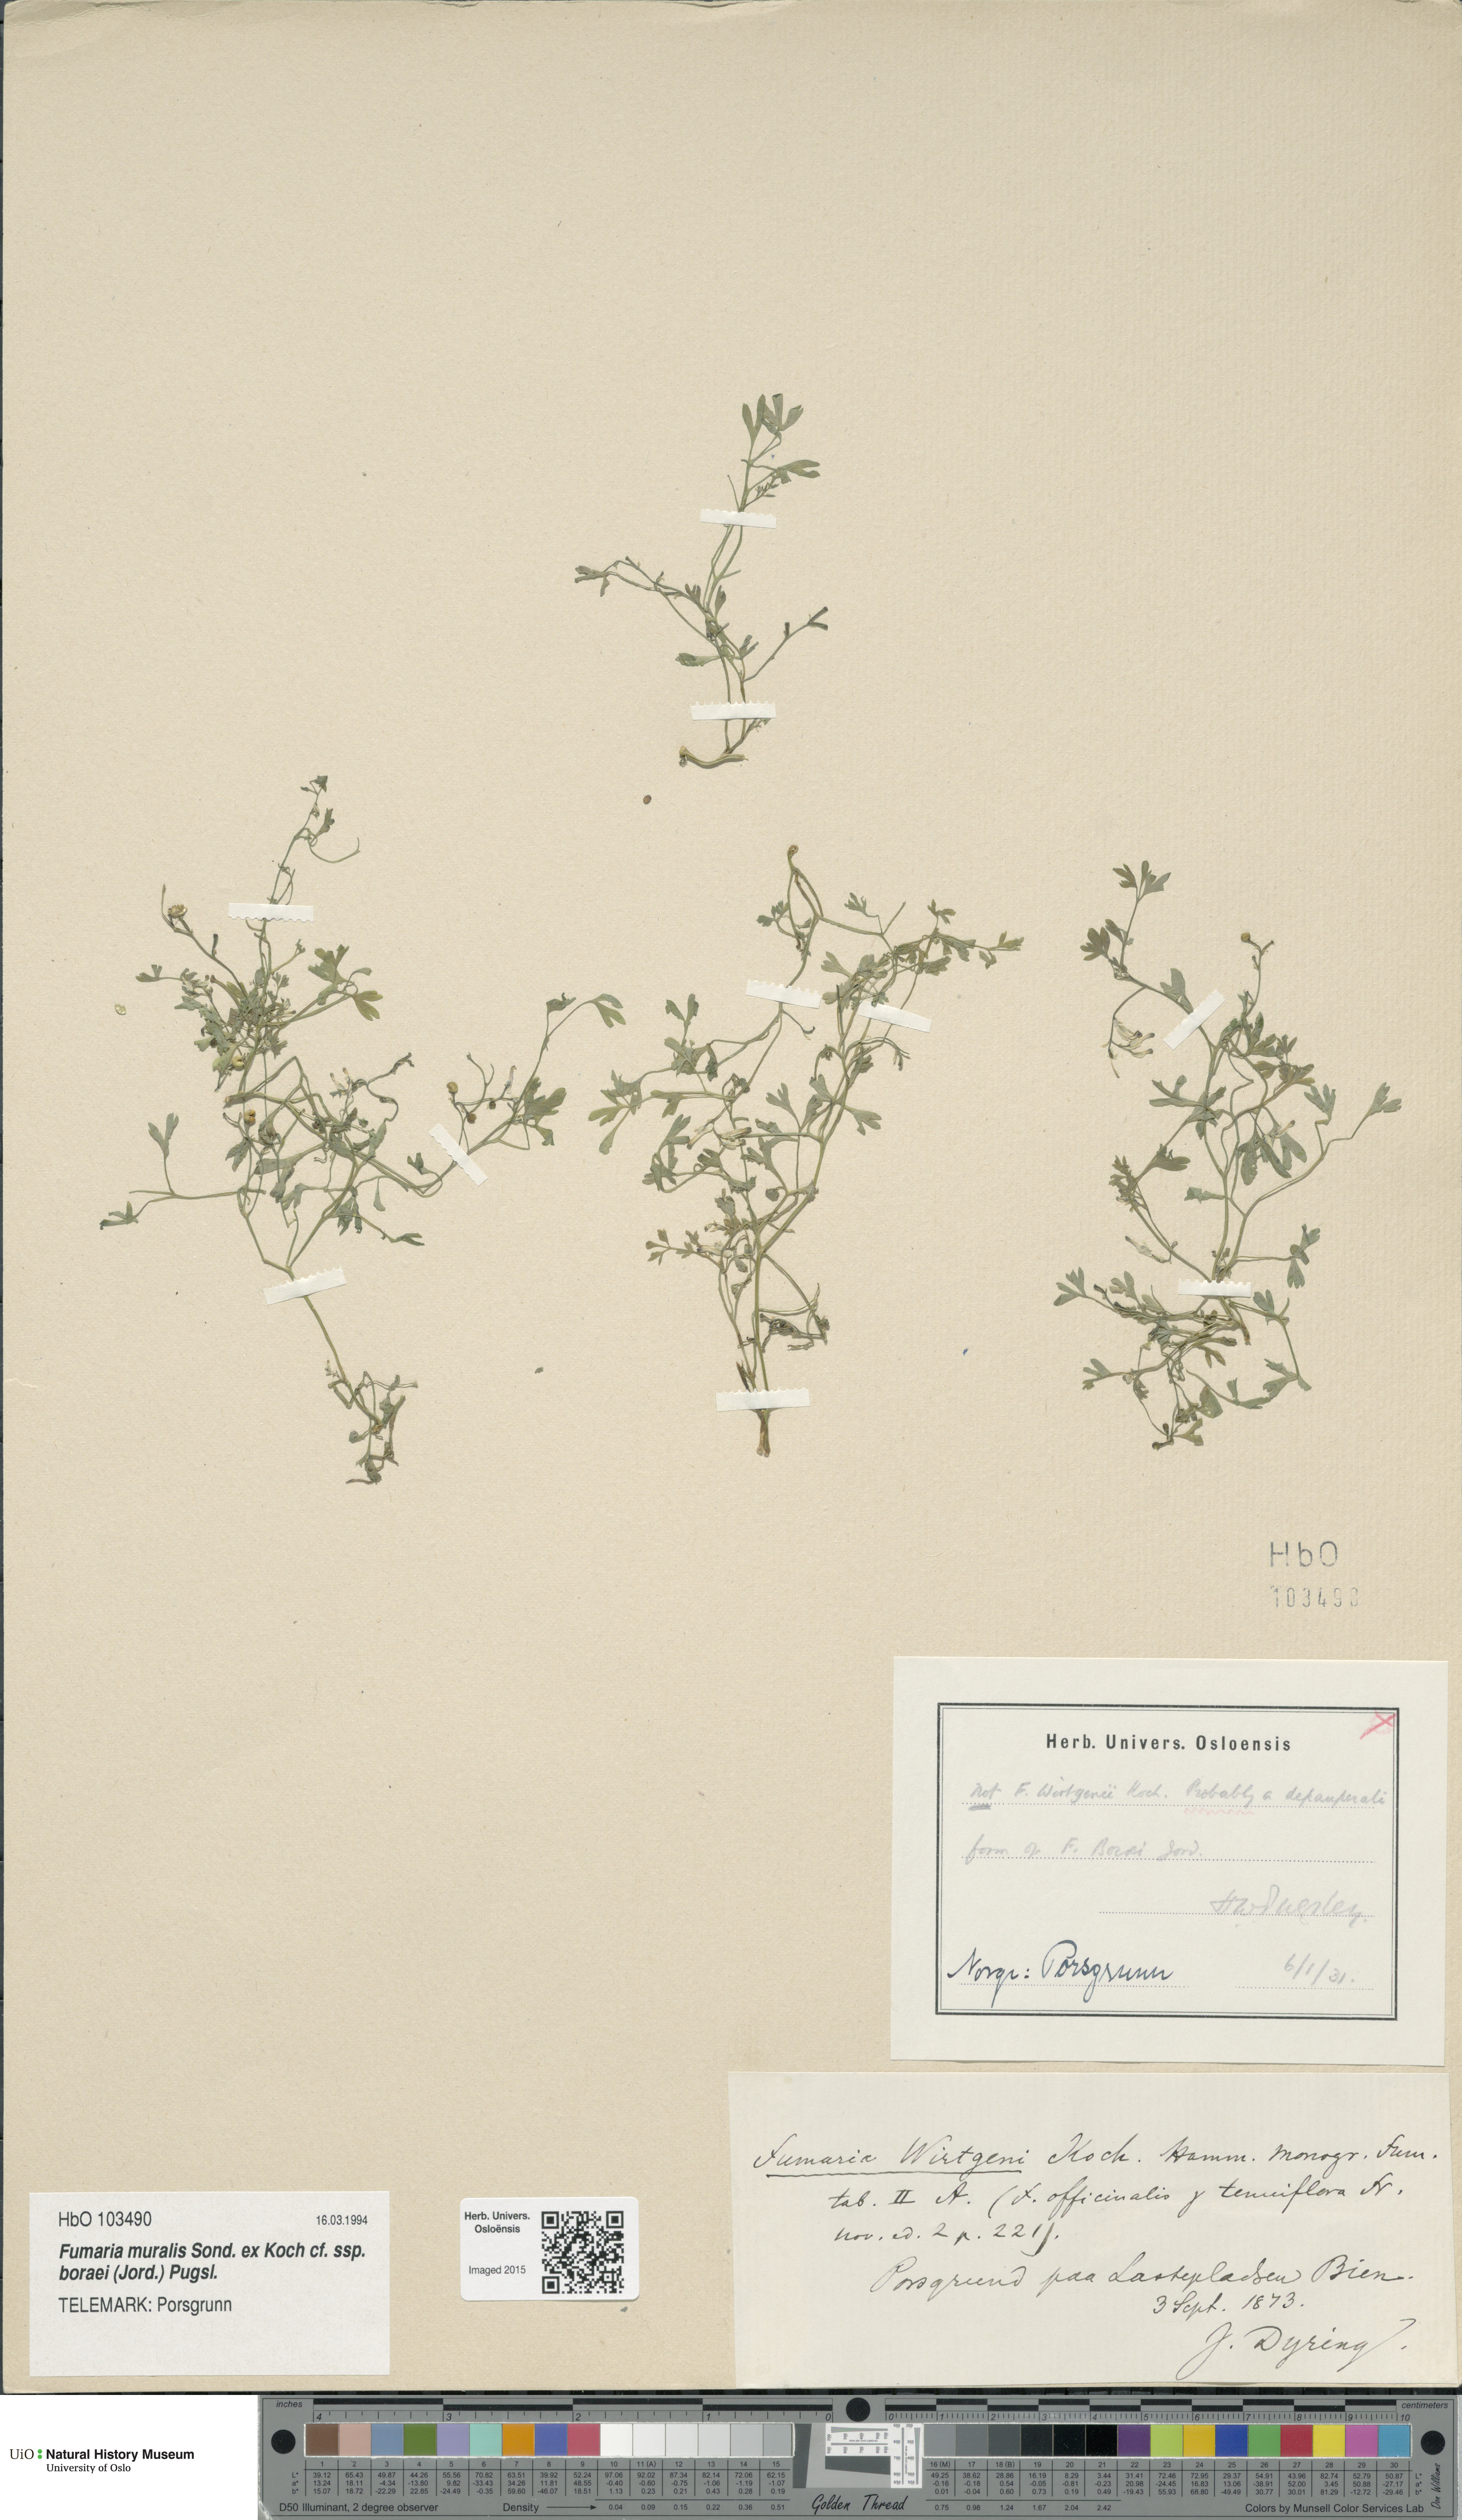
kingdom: Plantae
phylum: Tracheophyta
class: Magnoliopsida
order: Ranunculales
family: Papaveraceae
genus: Fumaria
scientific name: Fumaria muralis
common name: Common ramping-fumitory
